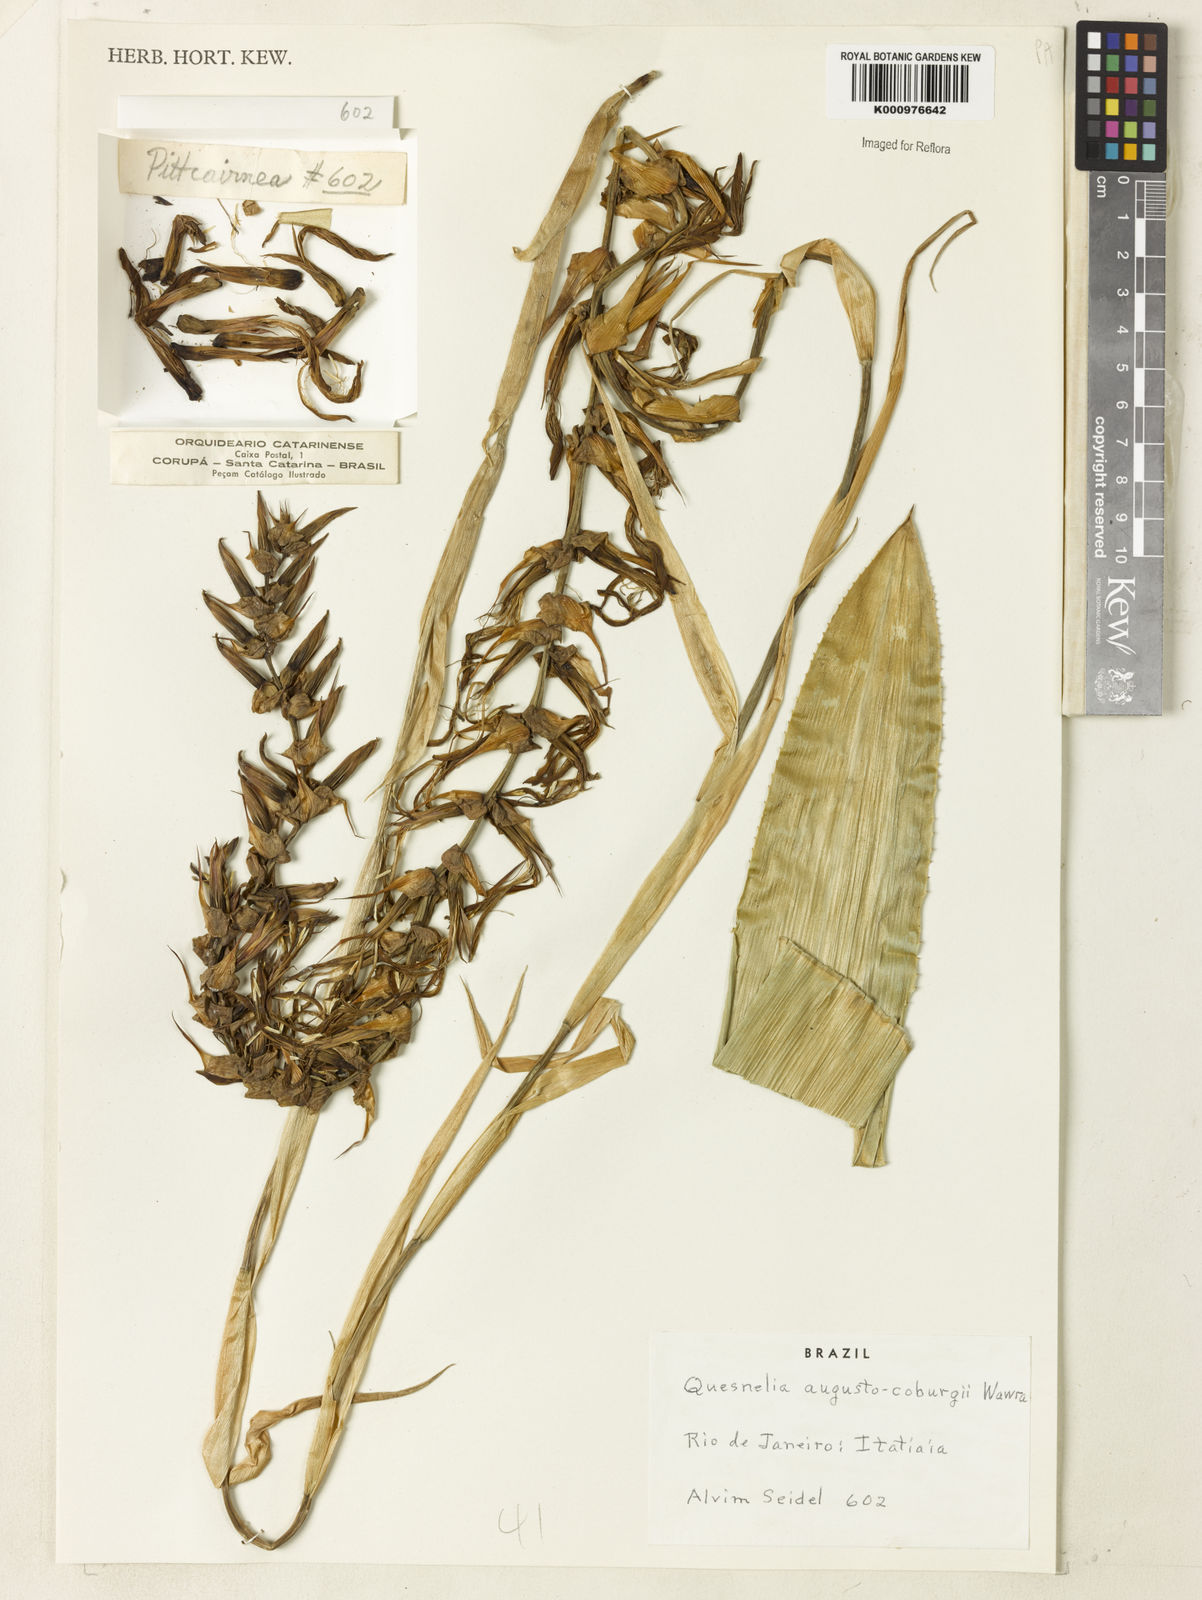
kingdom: Plantae
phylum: Tracheophyta
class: Liliopsida
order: Poales
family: Bromeliaceae
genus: Quesnelia
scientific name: Quesnelia augustocoburgi
